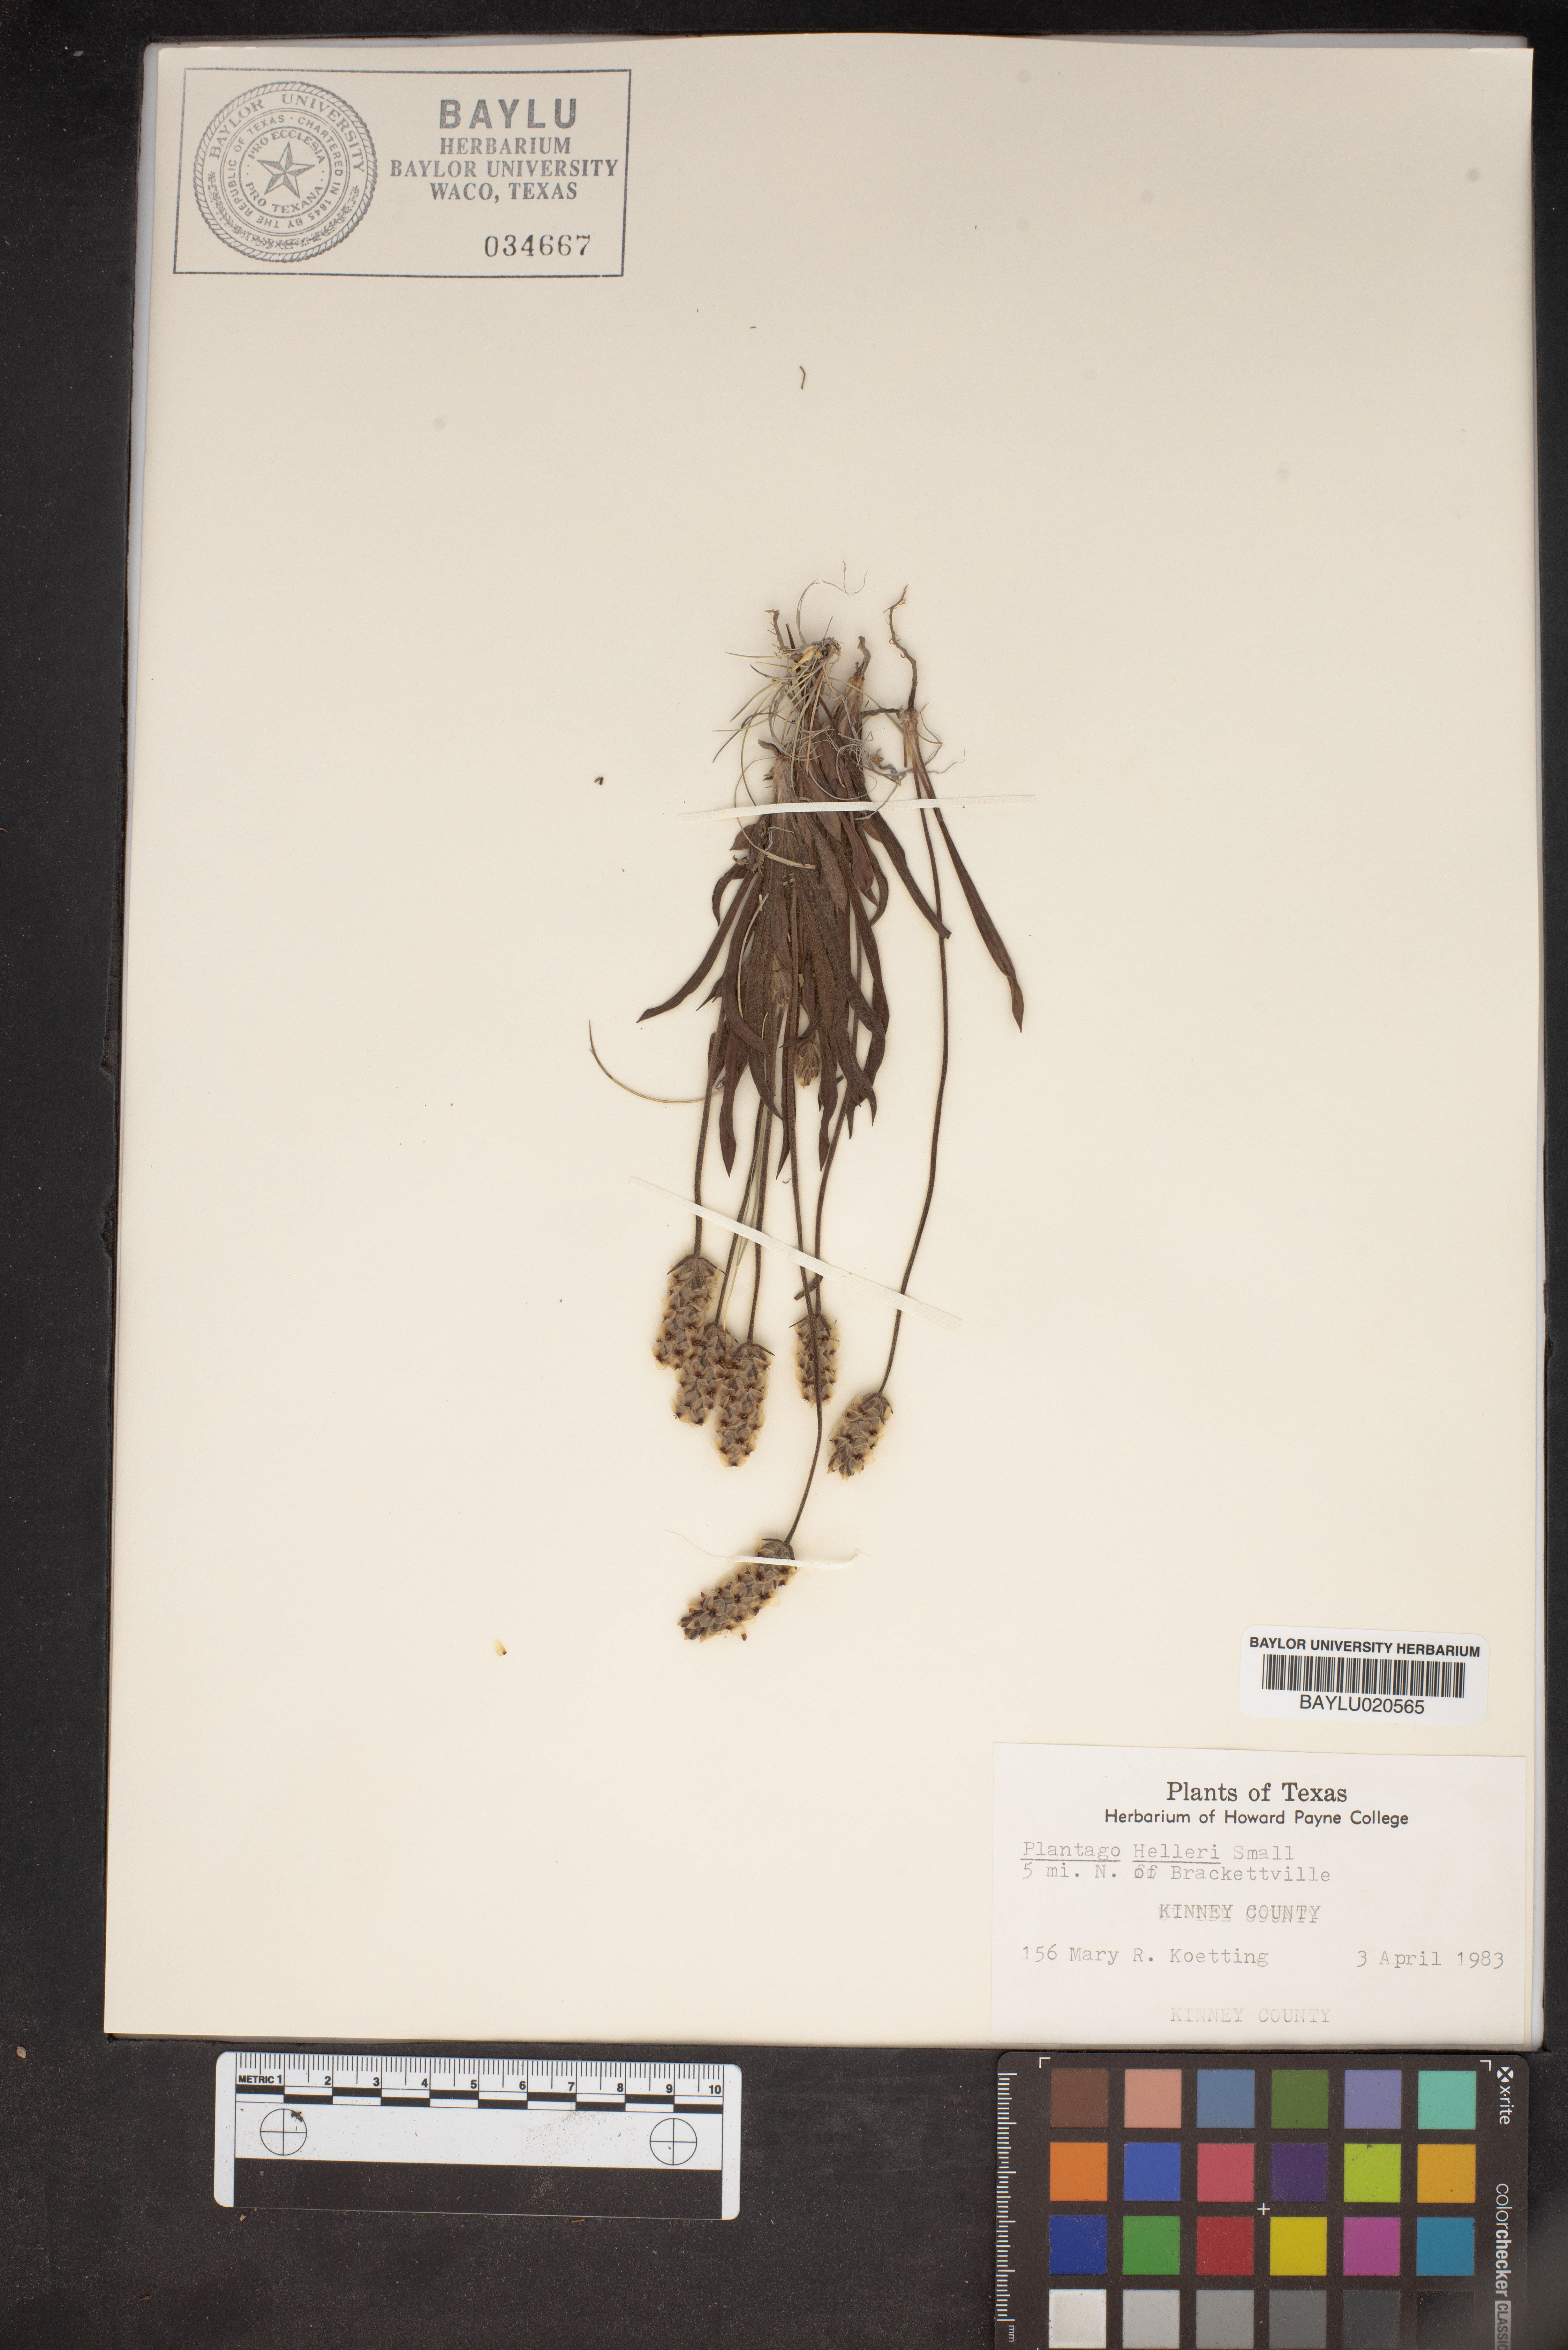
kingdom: Plantae
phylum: Tracheophyta
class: Magnoliopsida
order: Lamiales
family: Plantaginaceae
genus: Plantago
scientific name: Plantago helleri
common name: Heller's plantain
